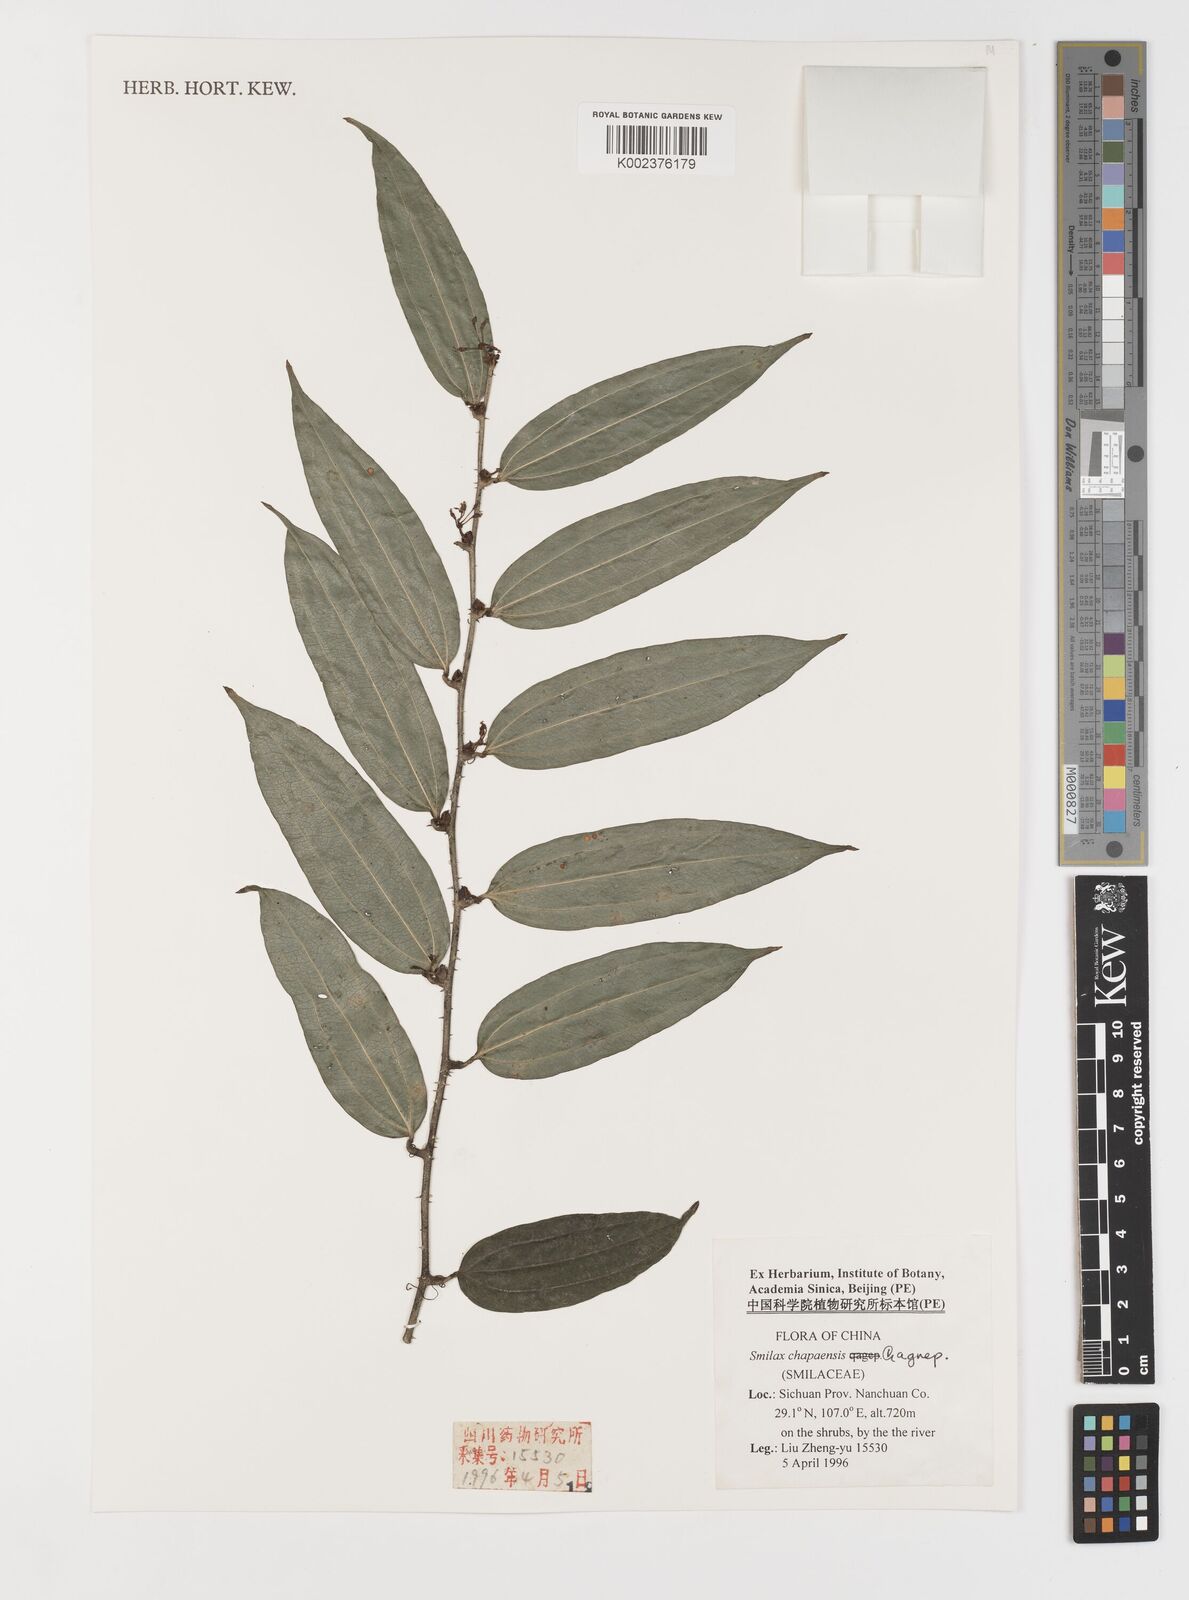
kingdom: Plantae
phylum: Tracheophyta
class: Liliopsida
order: Liliales
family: Smilacaceae
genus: Smilax
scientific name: Smilax chapaensis
